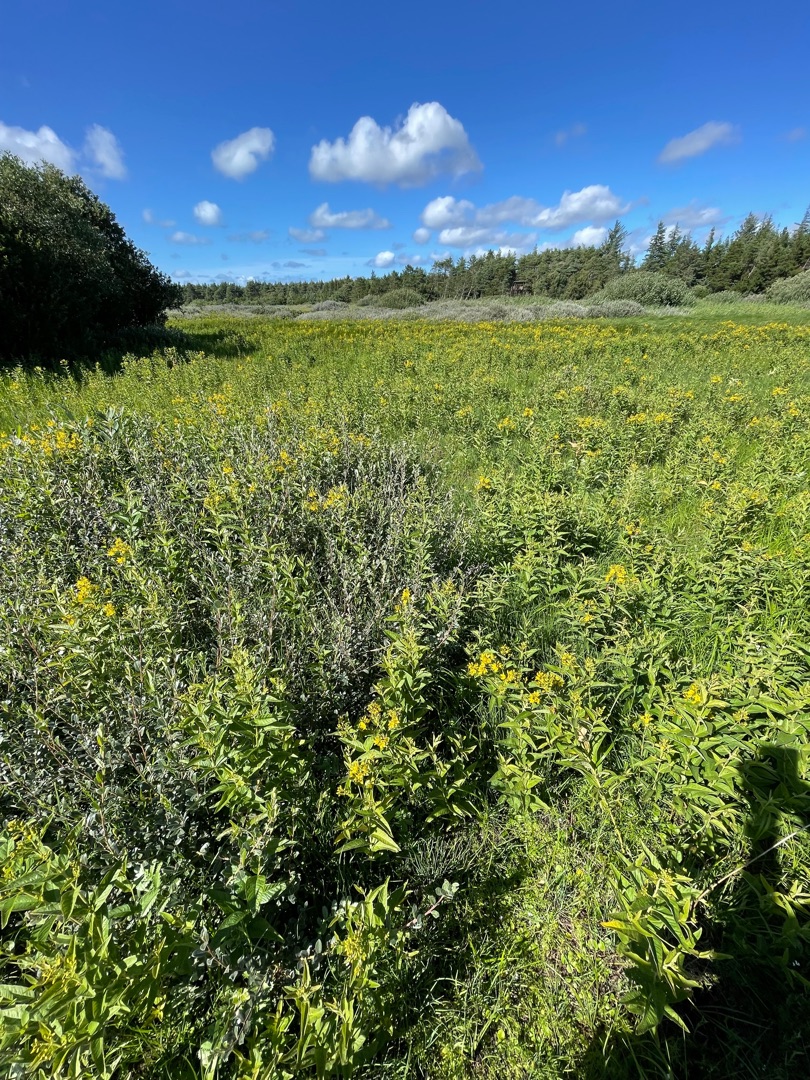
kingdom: Plantae
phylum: Tracheophyta
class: Magnoliopsida
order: Ericales
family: Primulaceae
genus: Lysimachia
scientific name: Lysimachia vulgaris
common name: Almindelig fredløs
